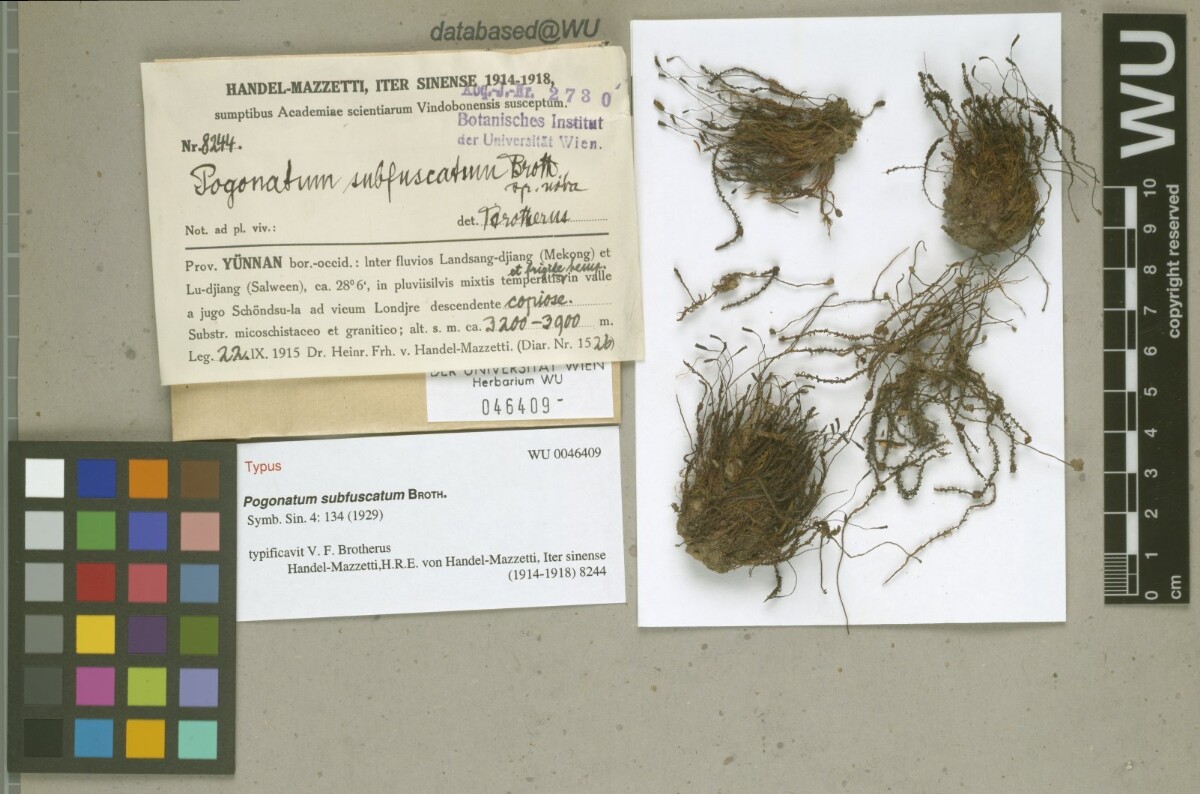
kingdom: Plantae
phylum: Bryophyta
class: Polytrichopsida
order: Polytrichales
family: Polytrichaceae
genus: Pogonatum
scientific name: Pogonatum subfuscatum
